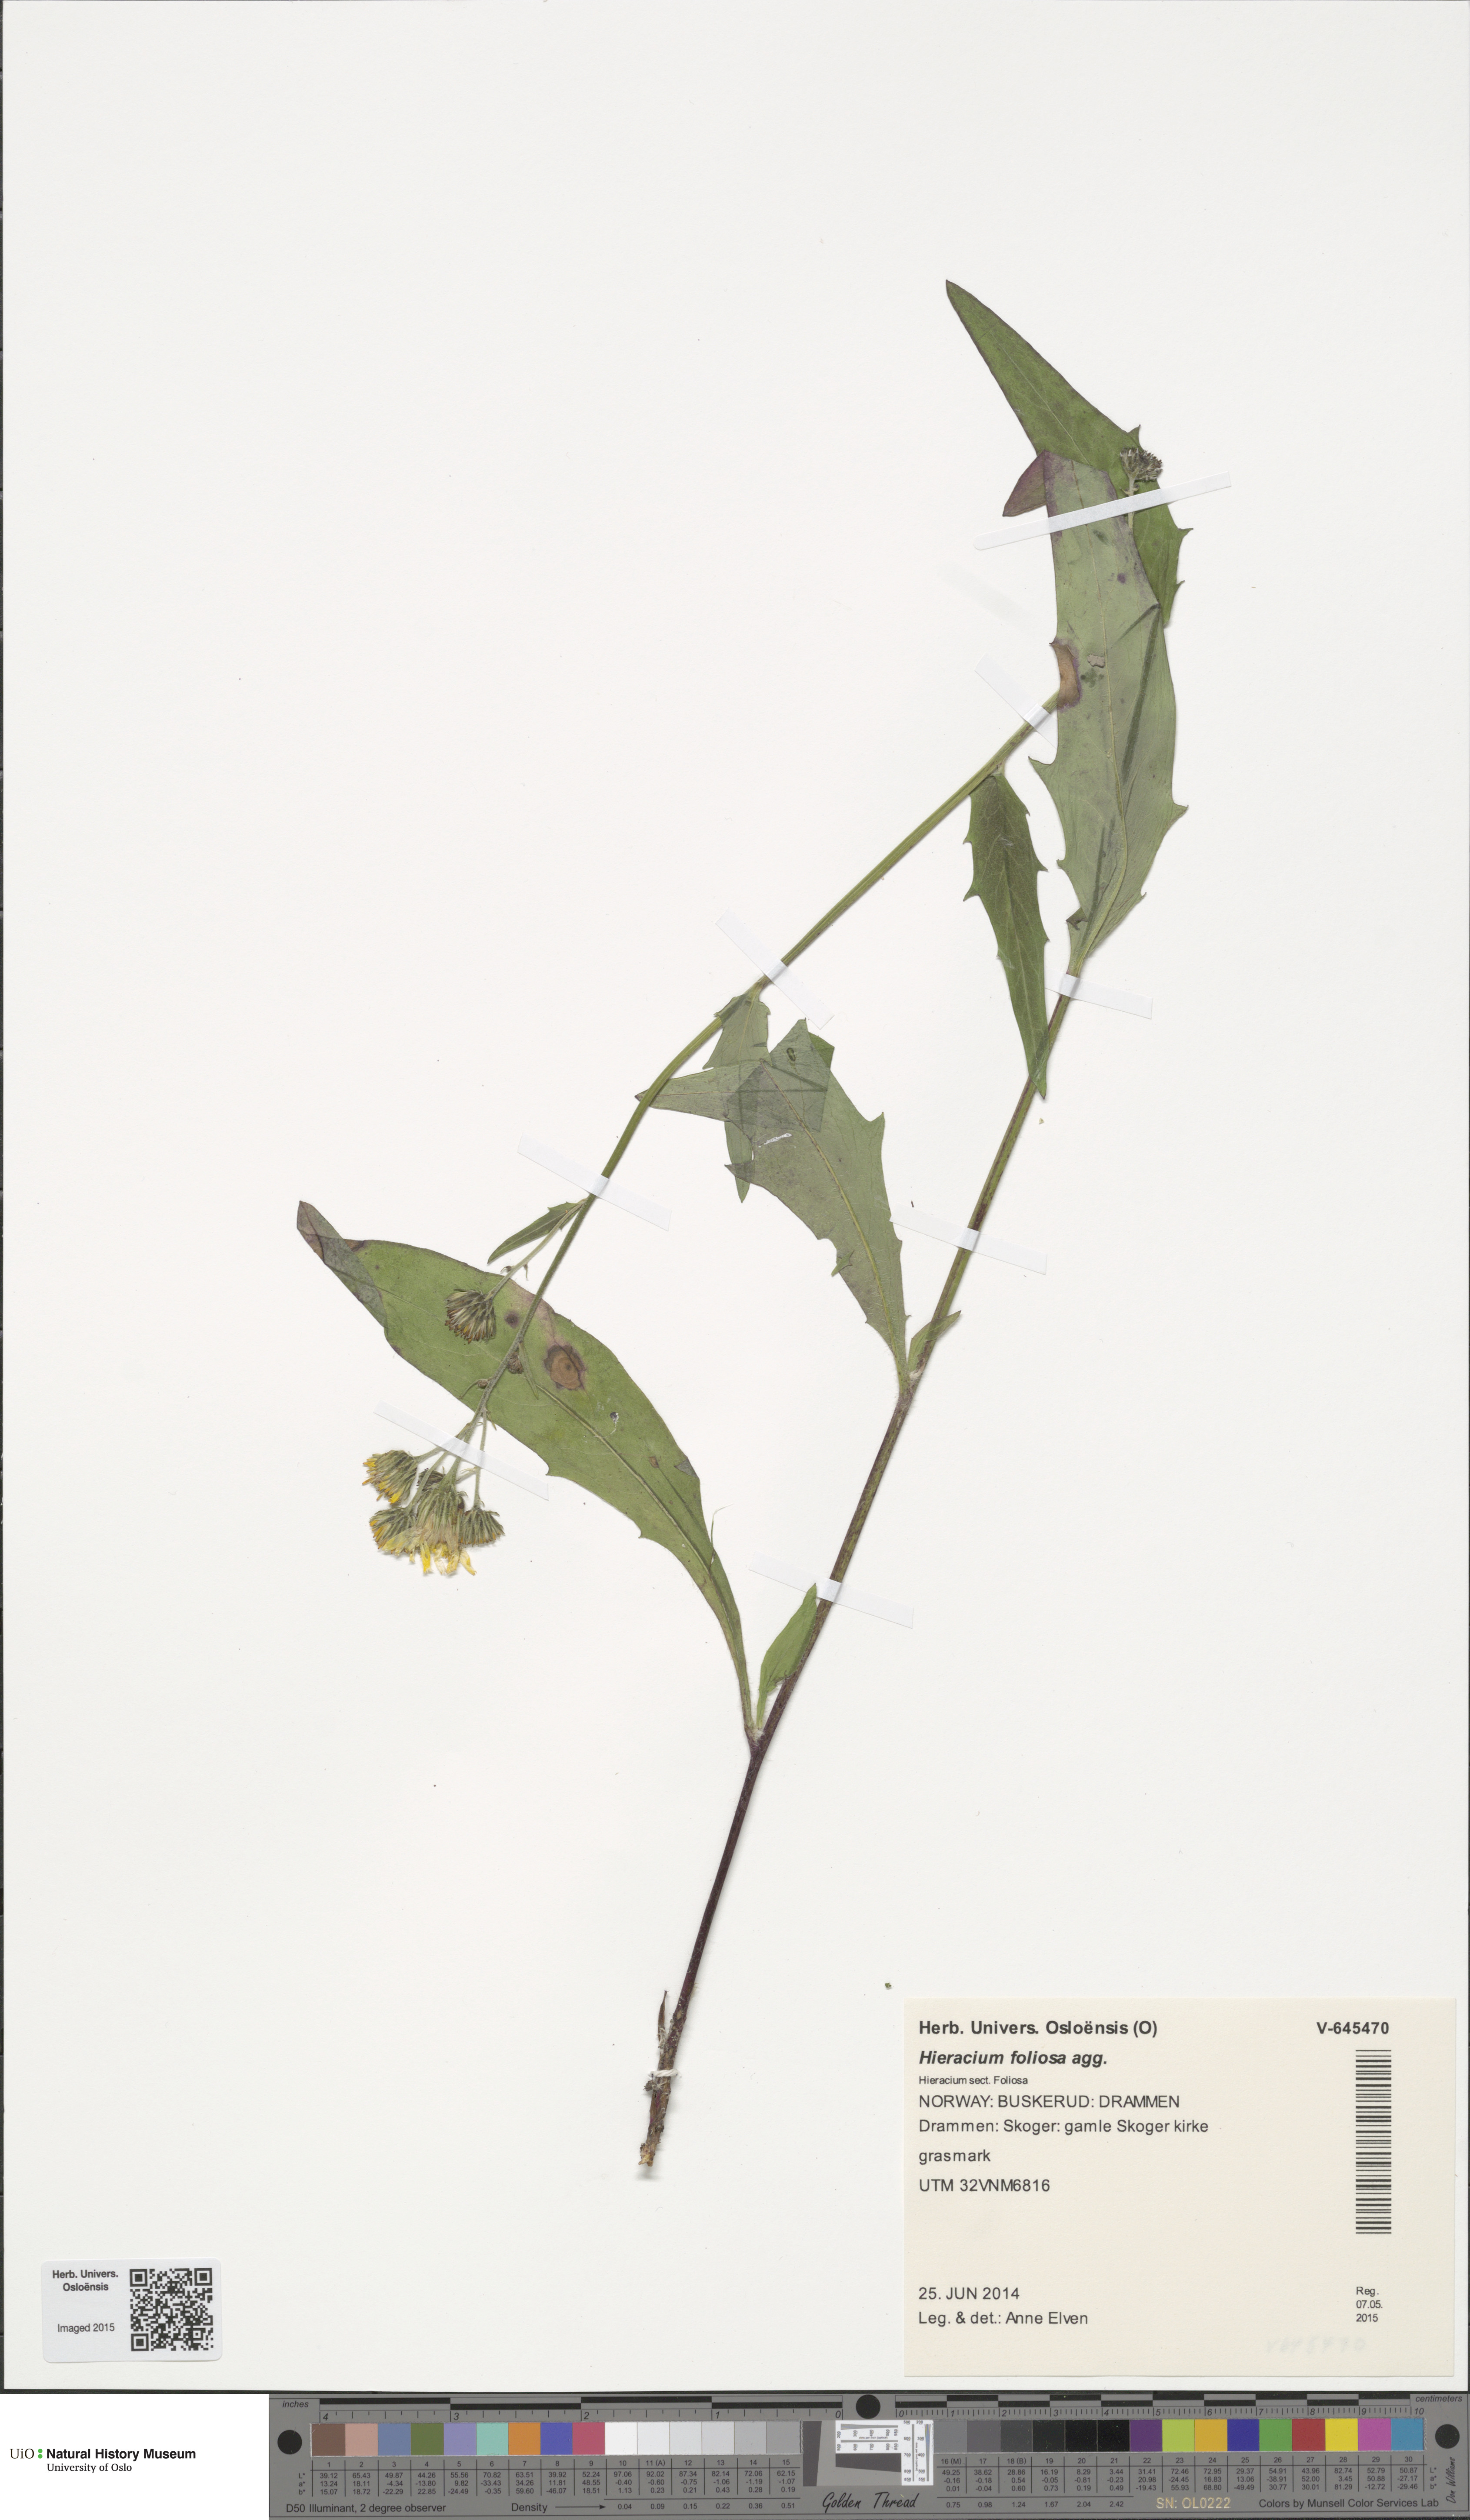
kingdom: Plantae
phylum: Tracheophyta
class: Magnoliopsida
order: Asterales
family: Asteraceae
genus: Hieracium
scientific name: Hieracium
